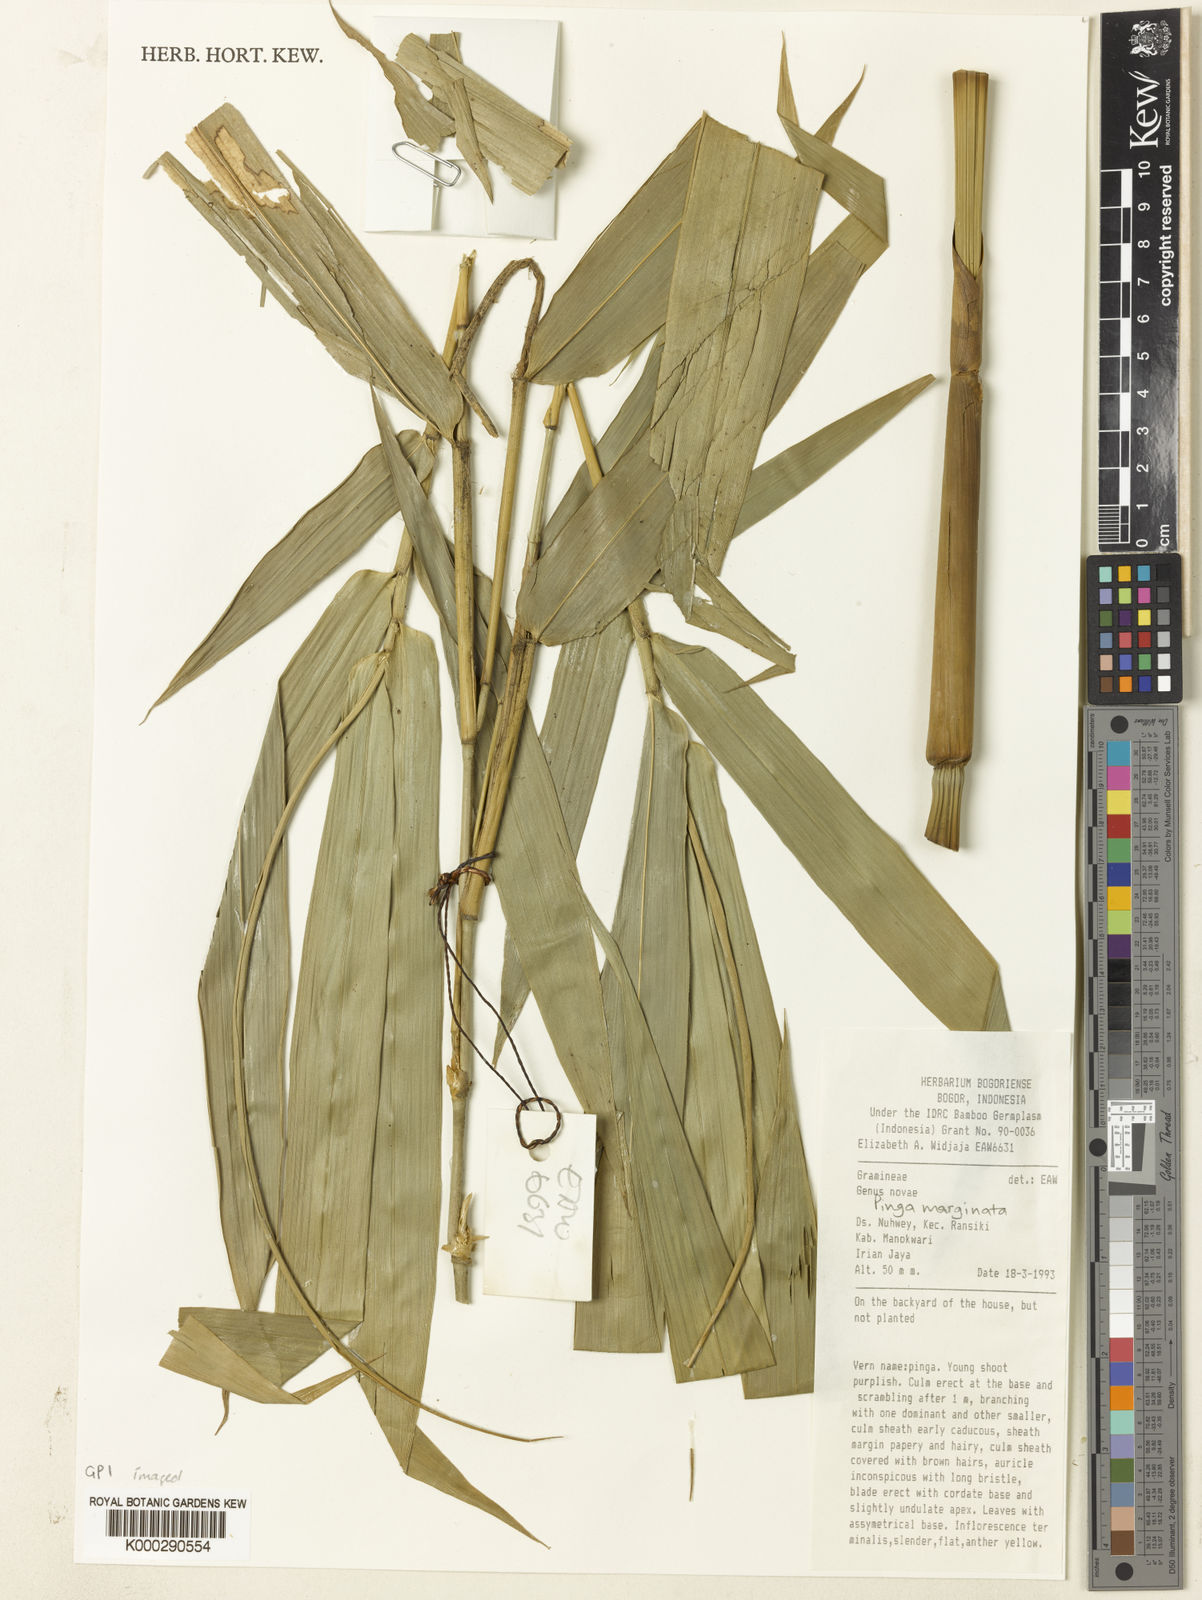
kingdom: Plantae
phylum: Tracheophyta
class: Liliopsida
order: Poales
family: Poaceae
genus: Pinga
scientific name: Pinga marginata
